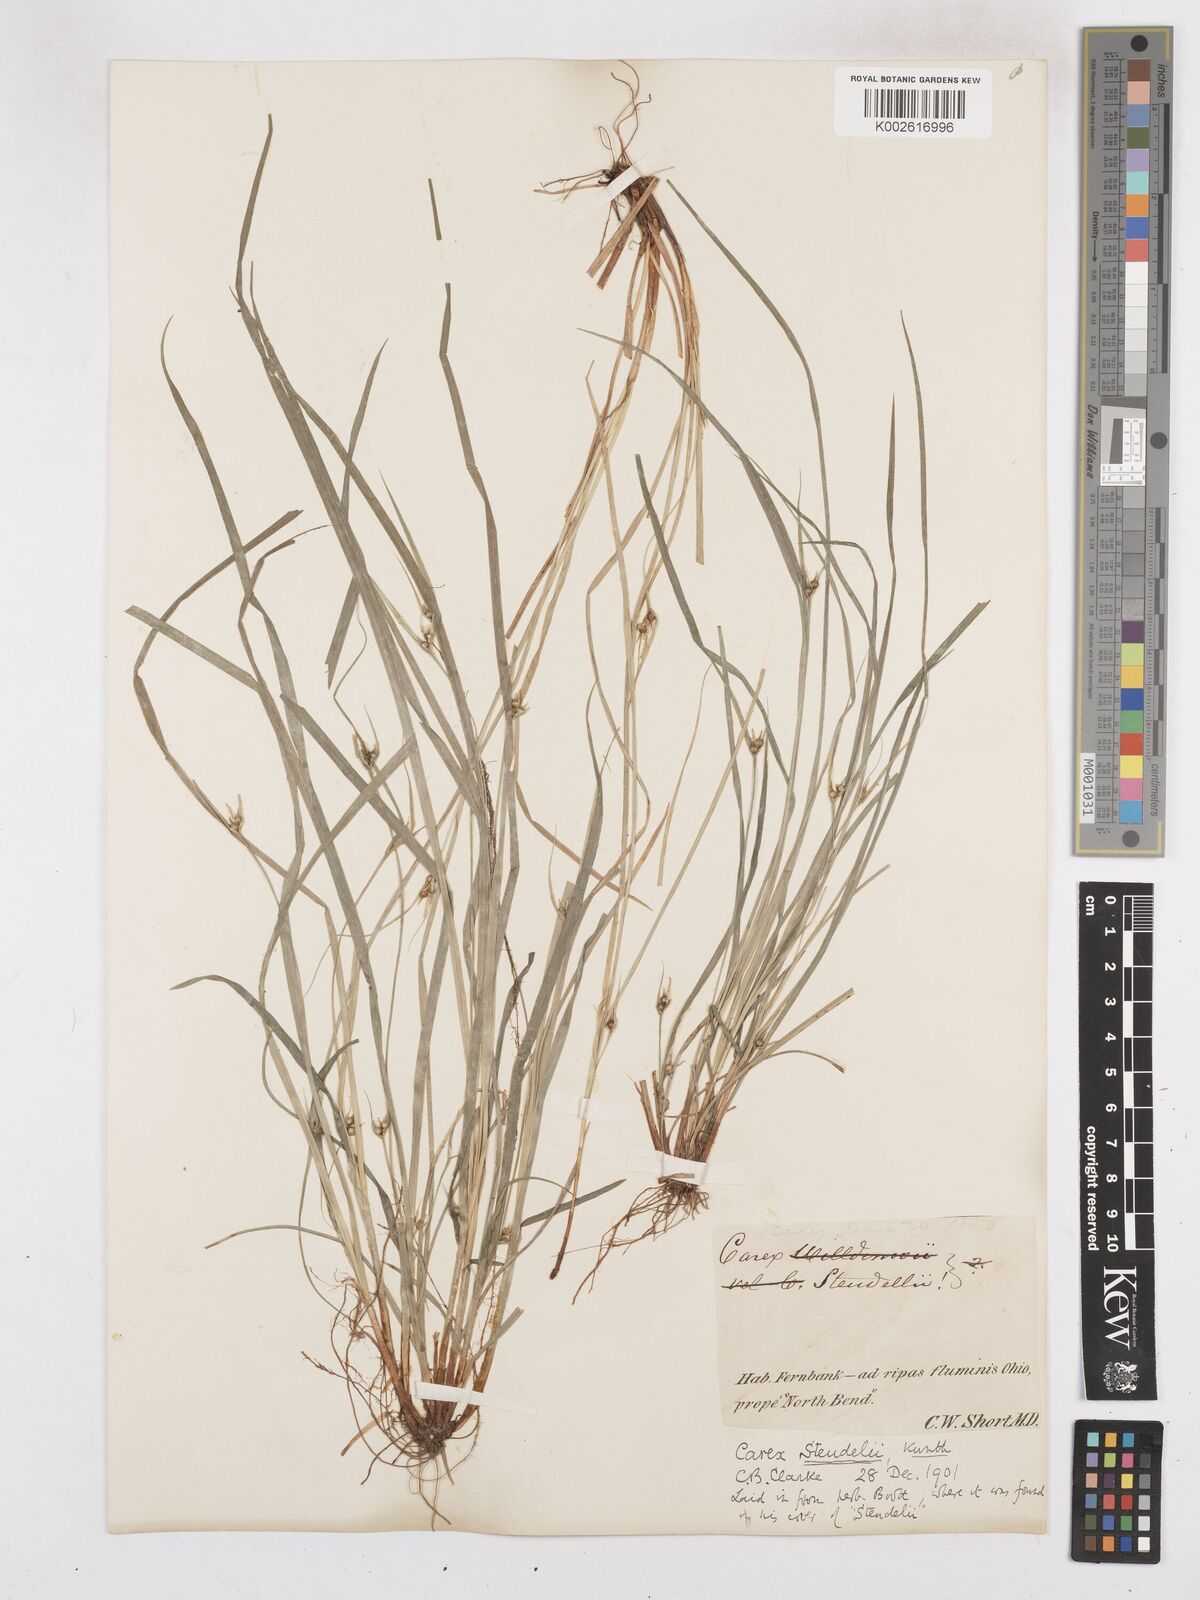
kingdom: Plantae
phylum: Tracheophyta
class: Liliopsida
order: Poales
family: Cyperaceae
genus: Carex
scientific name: Carex jamesii
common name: Grass sedge
